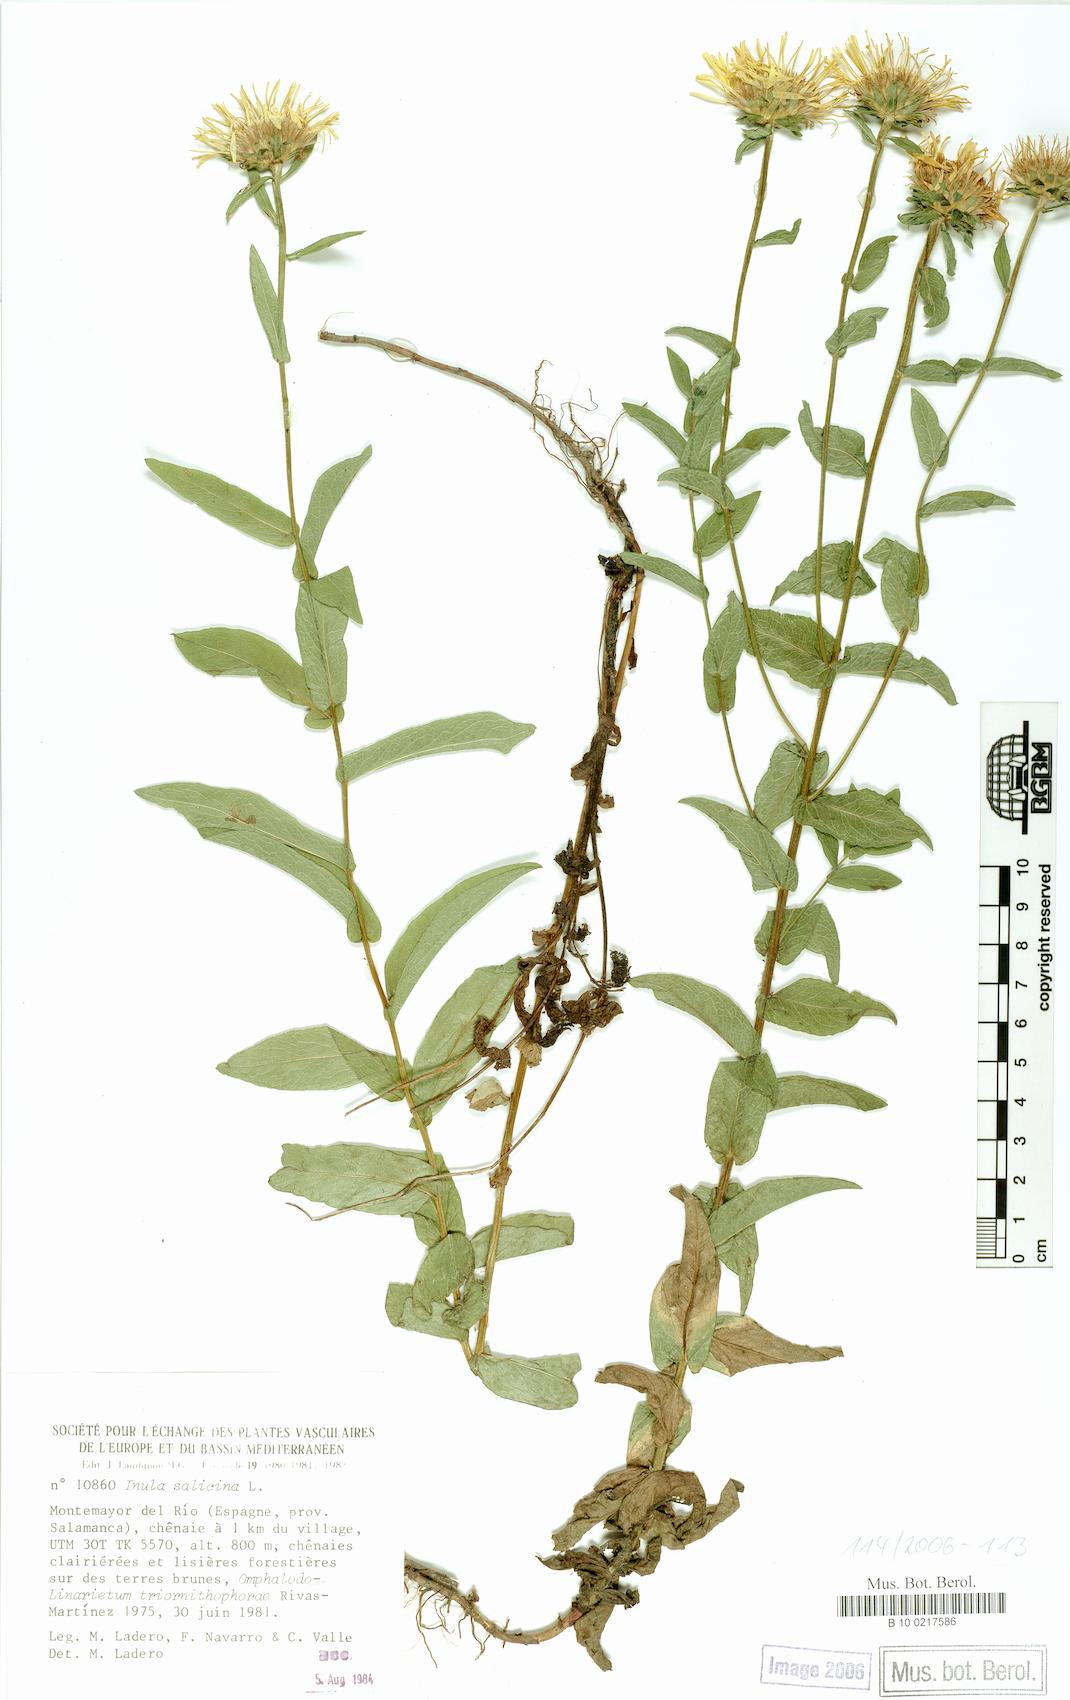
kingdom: Plantae
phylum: Tracheophyta
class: Magnoliopsida
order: Asterales
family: Asteraceae
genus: Pentanema
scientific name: Pentanema salicinum
